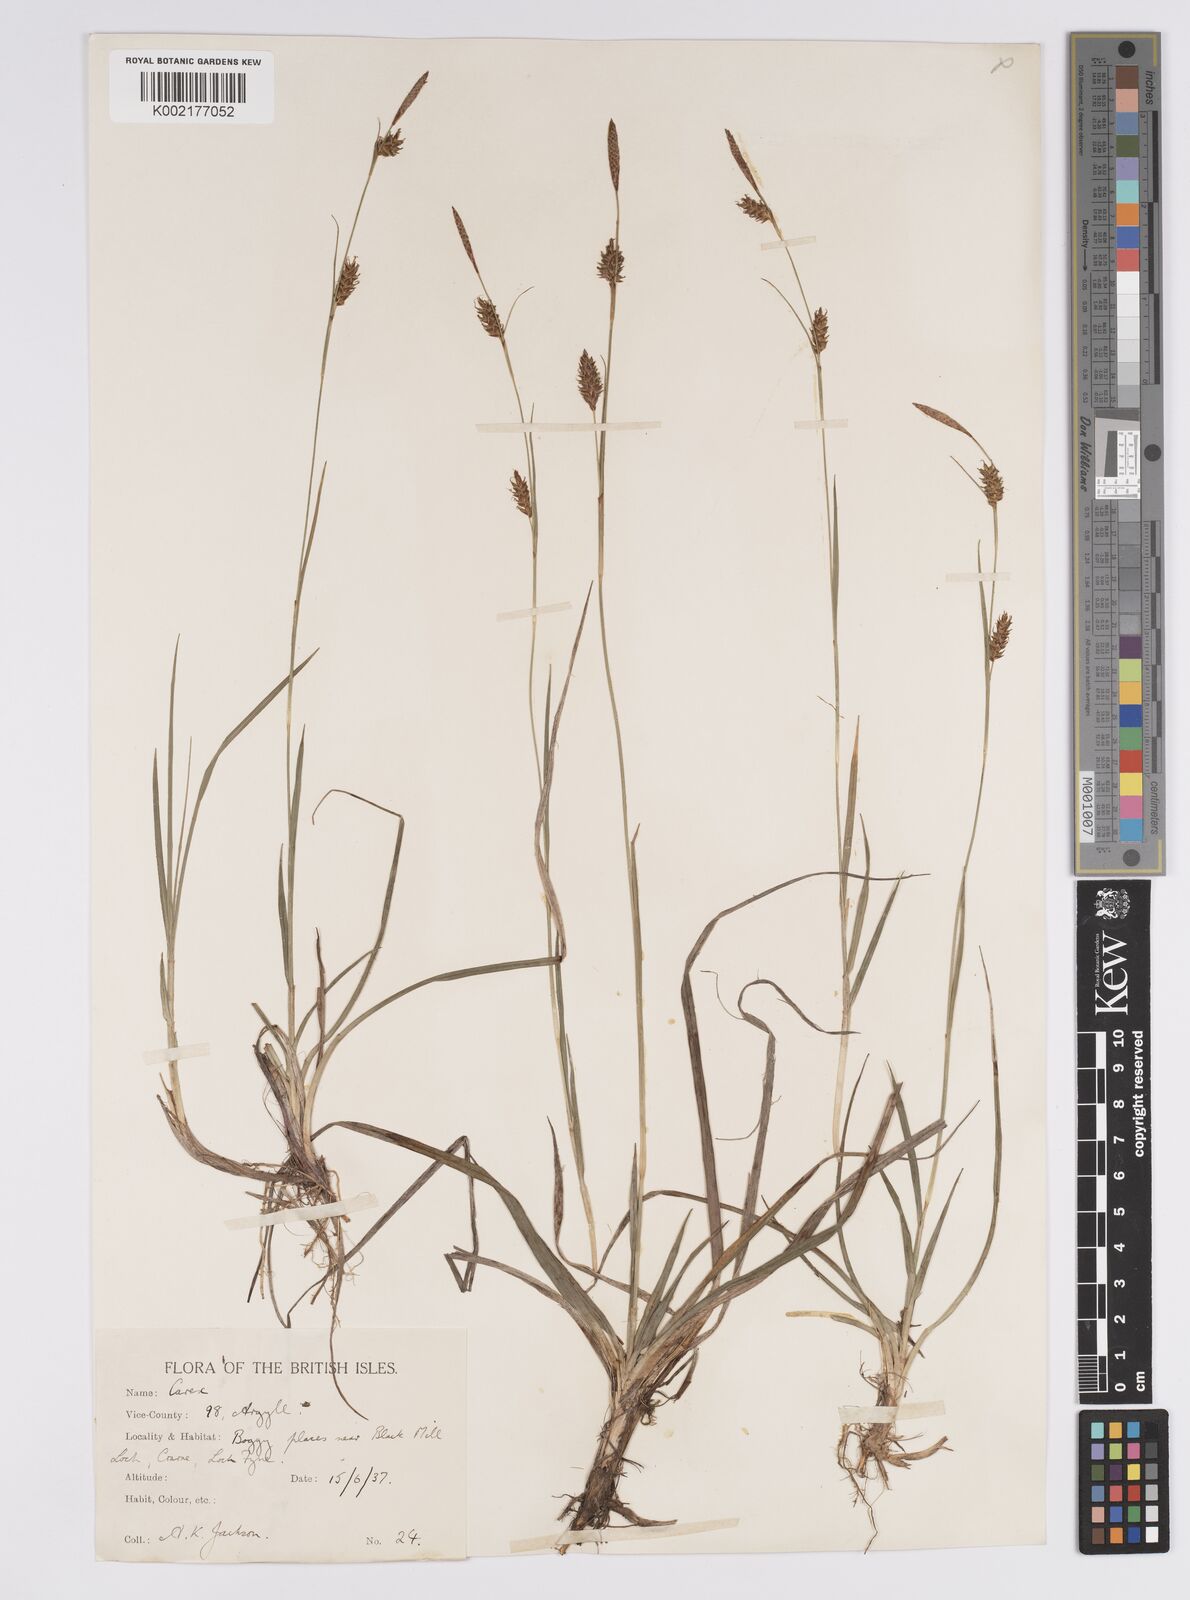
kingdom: Plantae
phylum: Tracheophyta
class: Liliopsida
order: Poales
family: Cyperaceae
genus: Carex
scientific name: Carex hostiana
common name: Tawny sedge
